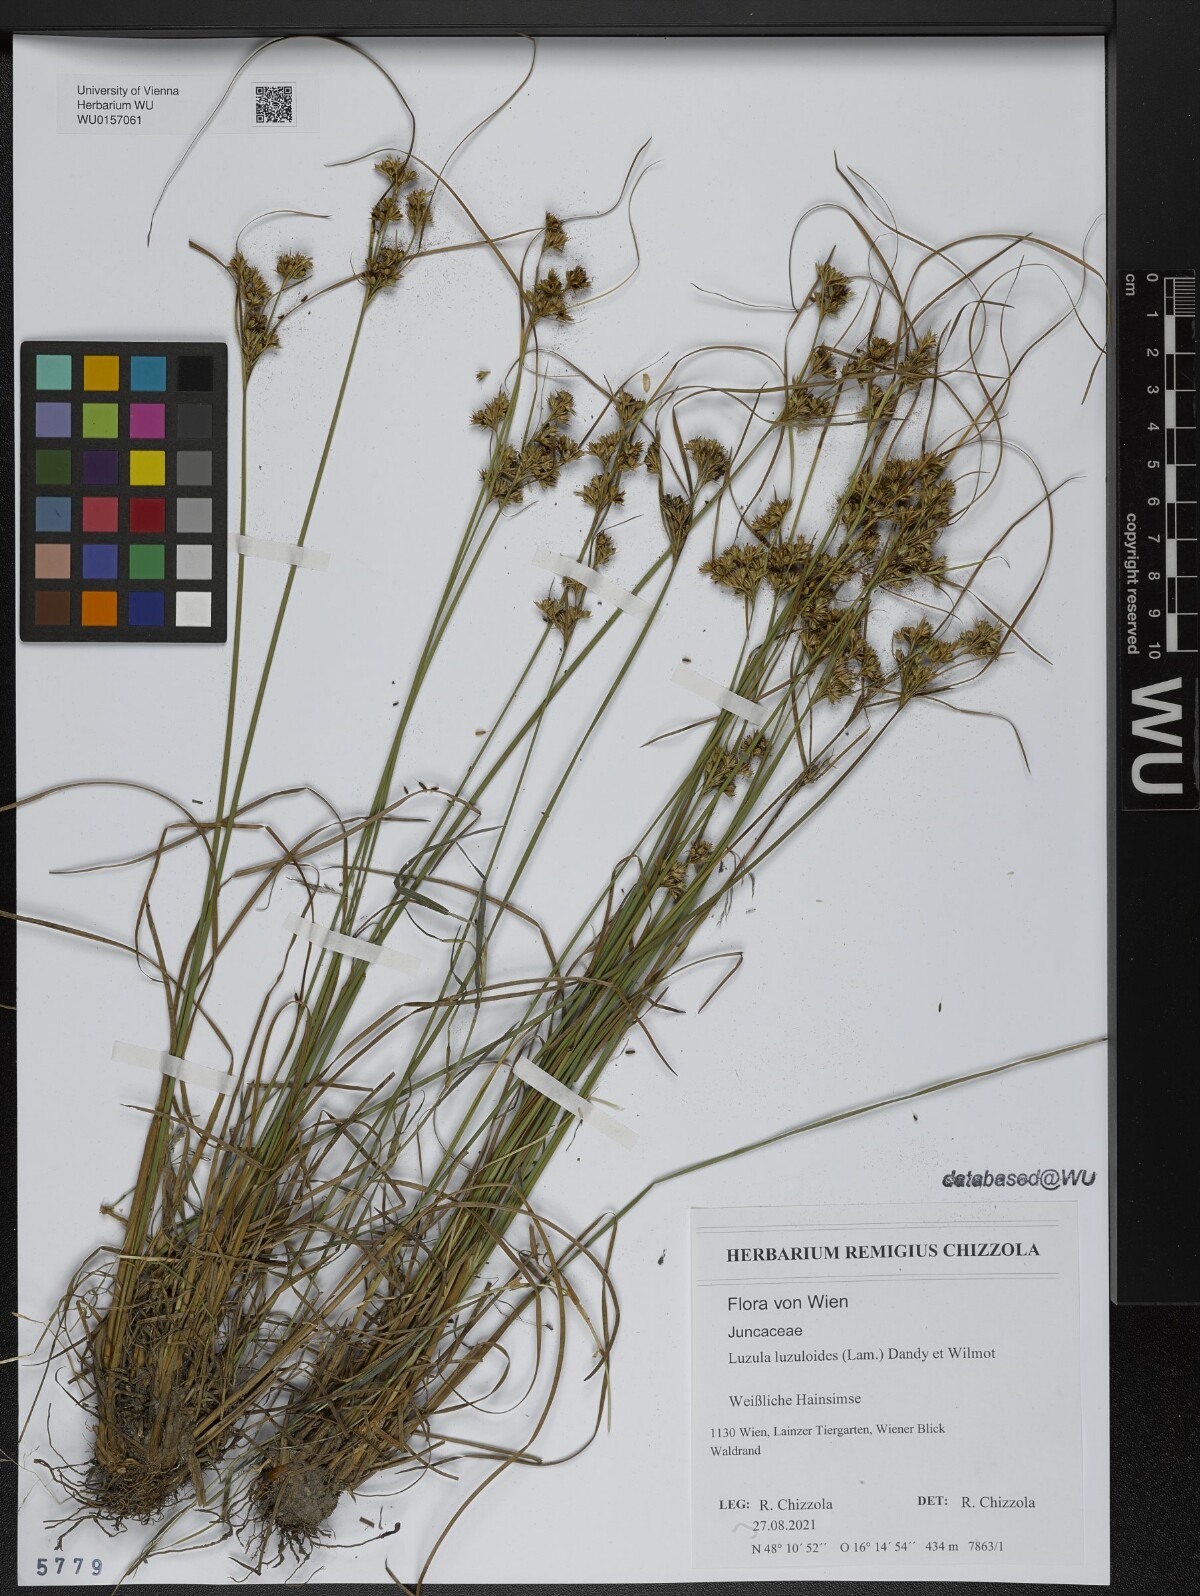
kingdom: Plantae
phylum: Tracheophyta
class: Liliopsida
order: Poales
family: Juncaceae
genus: Luzula
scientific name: Luzula luzuloides
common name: White wood-rush
